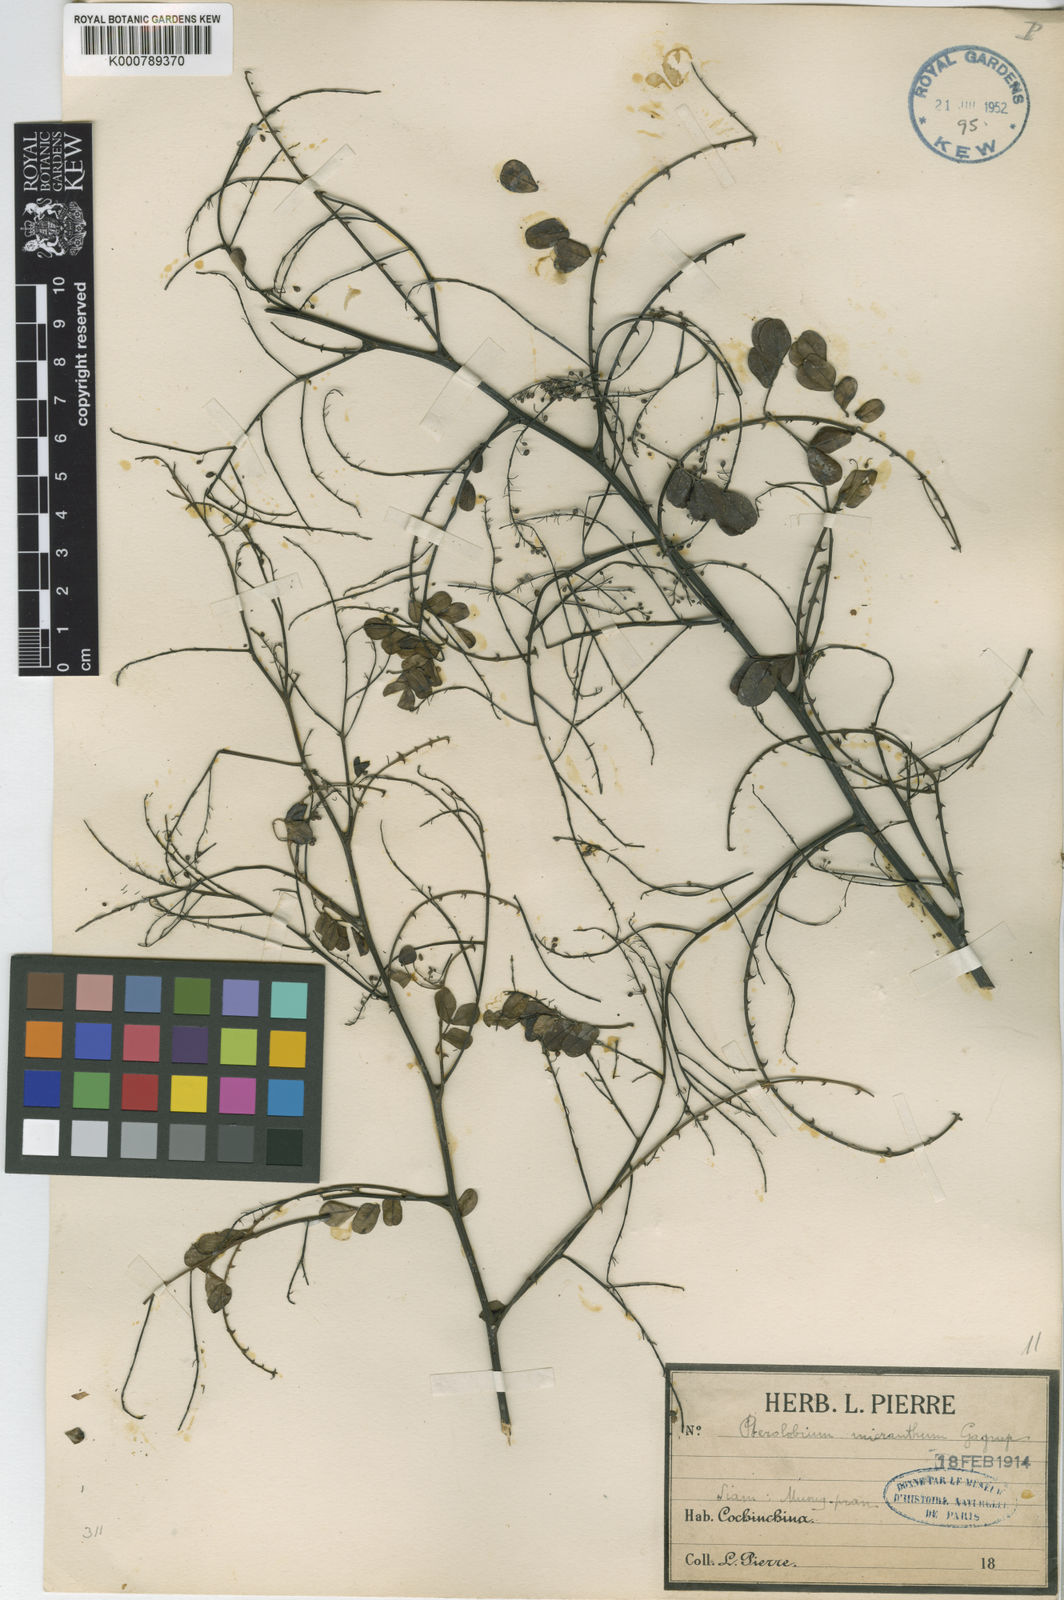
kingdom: Plantae
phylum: Tracheophyta
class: Magnoliopsida
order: Fabales
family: Fabaceae
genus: Pterolobium
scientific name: Pterolobium micranthum
